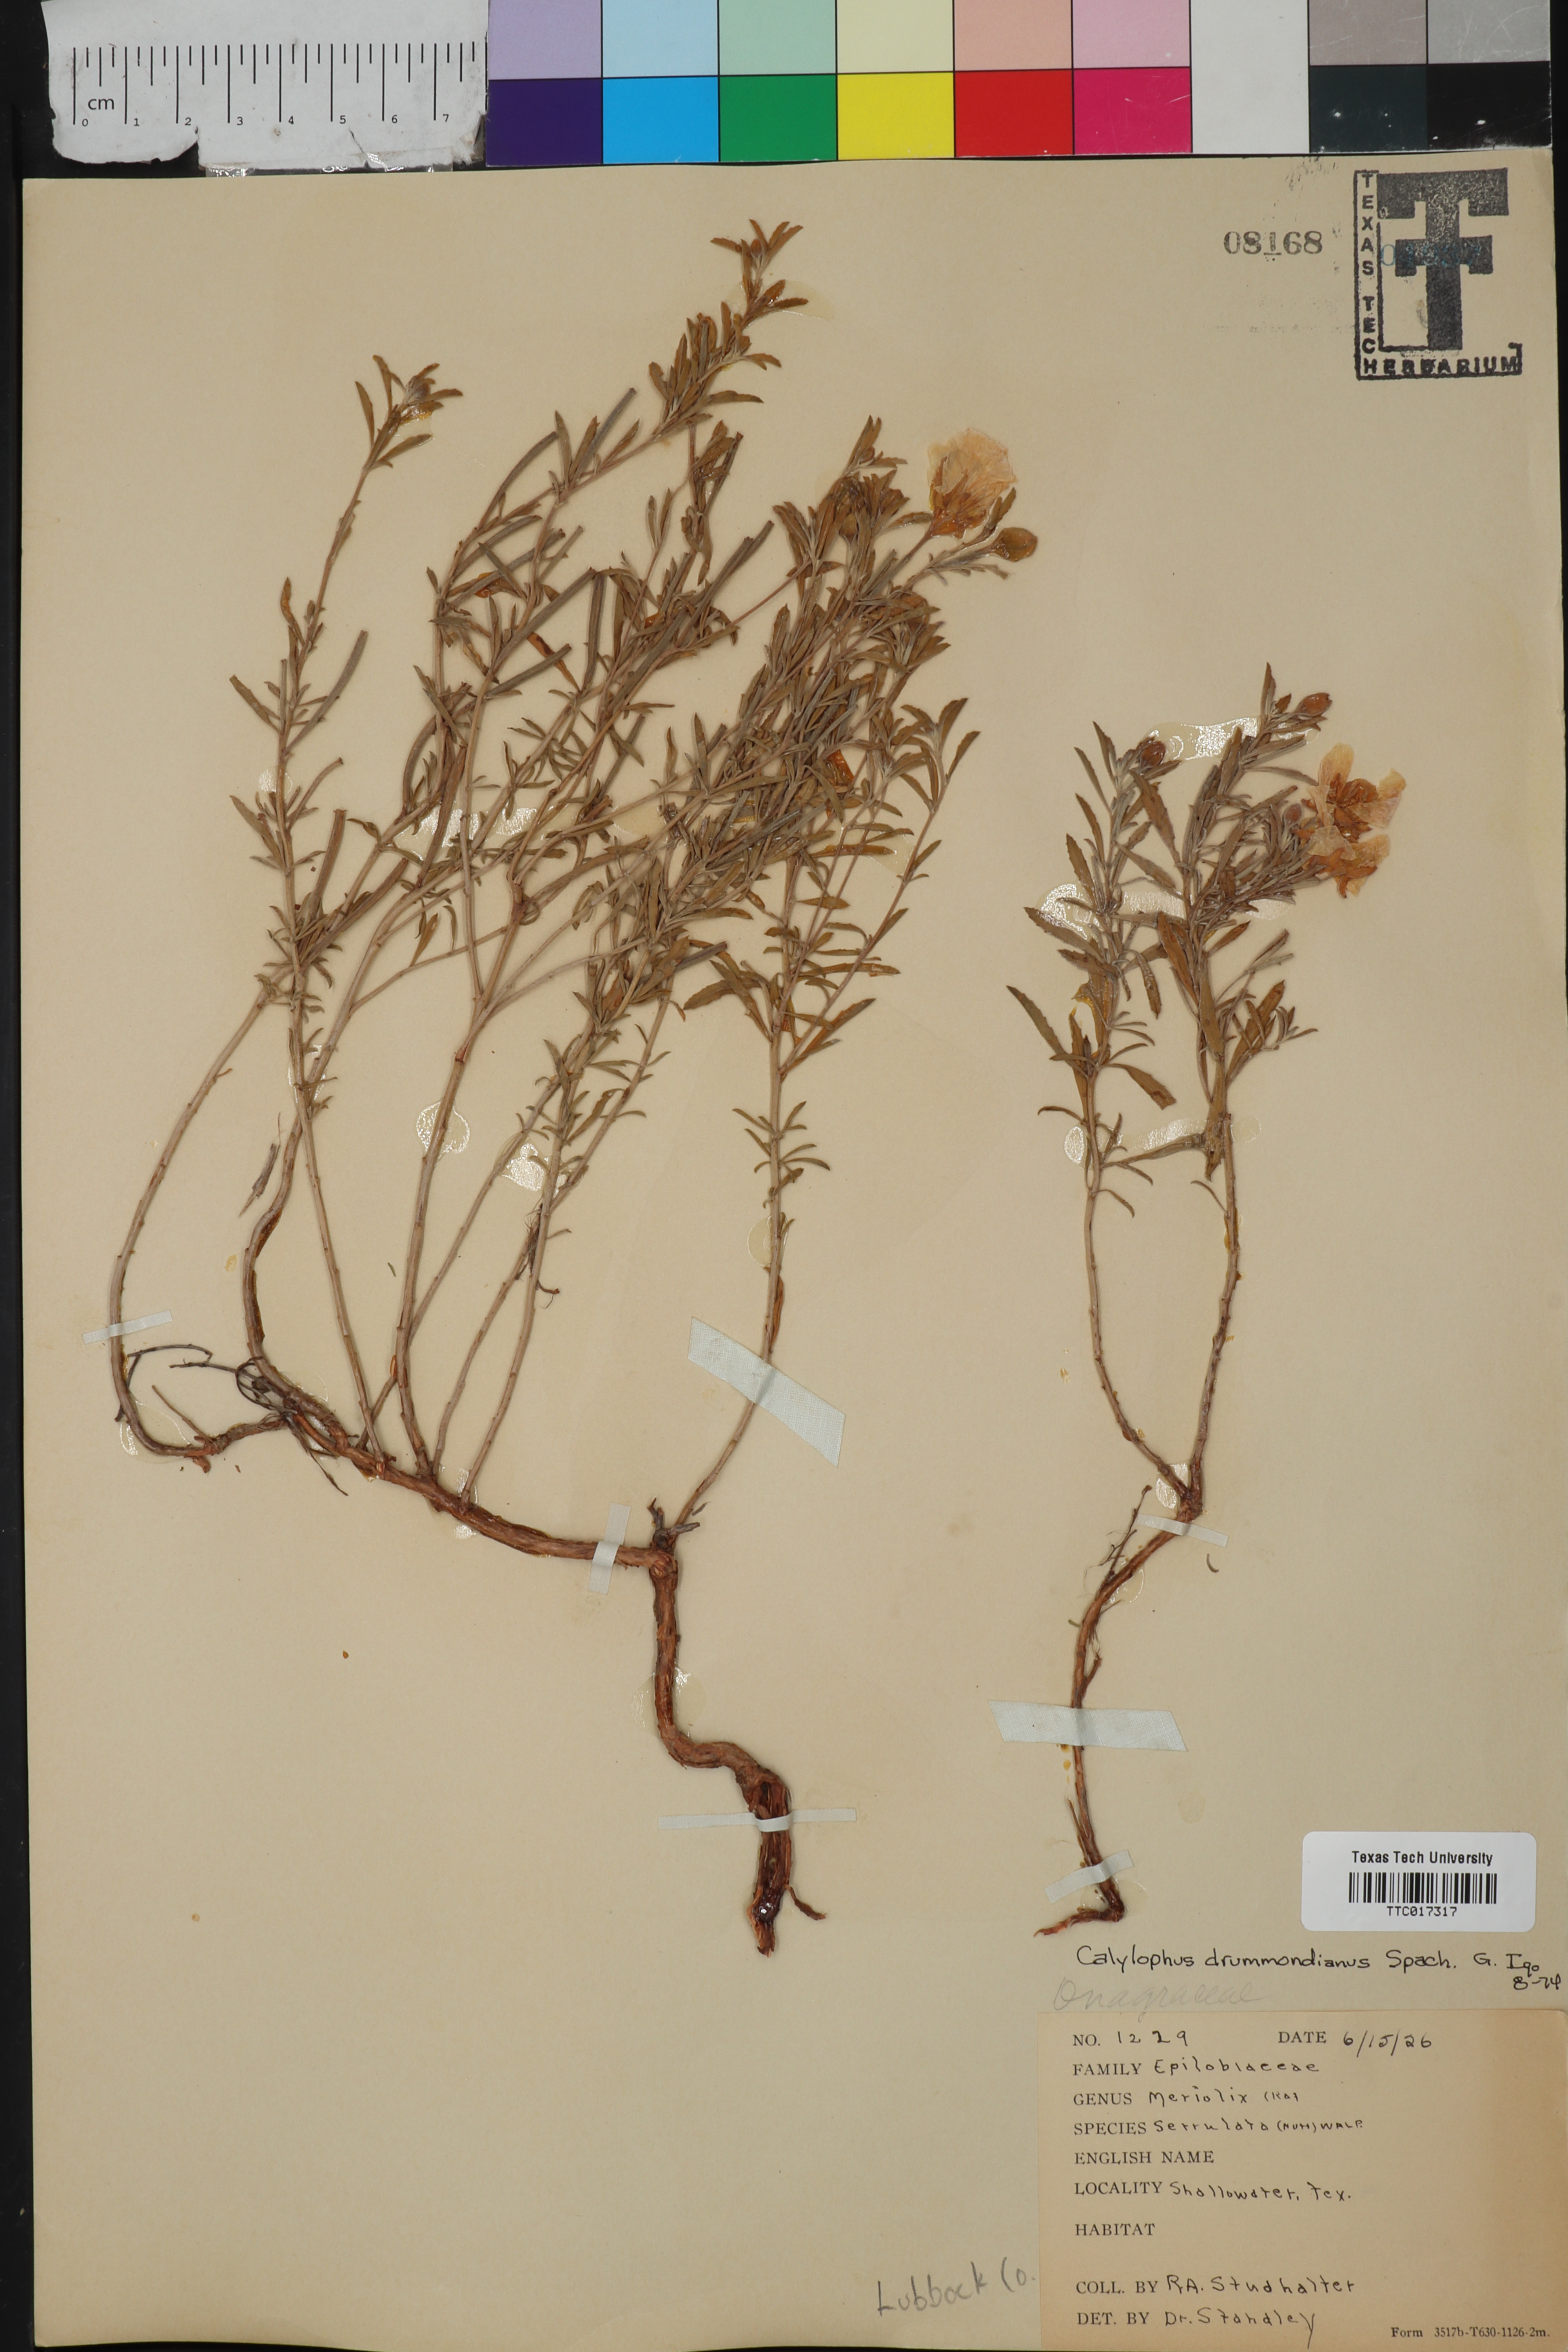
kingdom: Plantae
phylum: Tracheophyta
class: Magnoliopsida
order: Myrtales
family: Onagraceae
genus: Oenothera
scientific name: Oenothera serrulata
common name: Half-shrub calylophus
